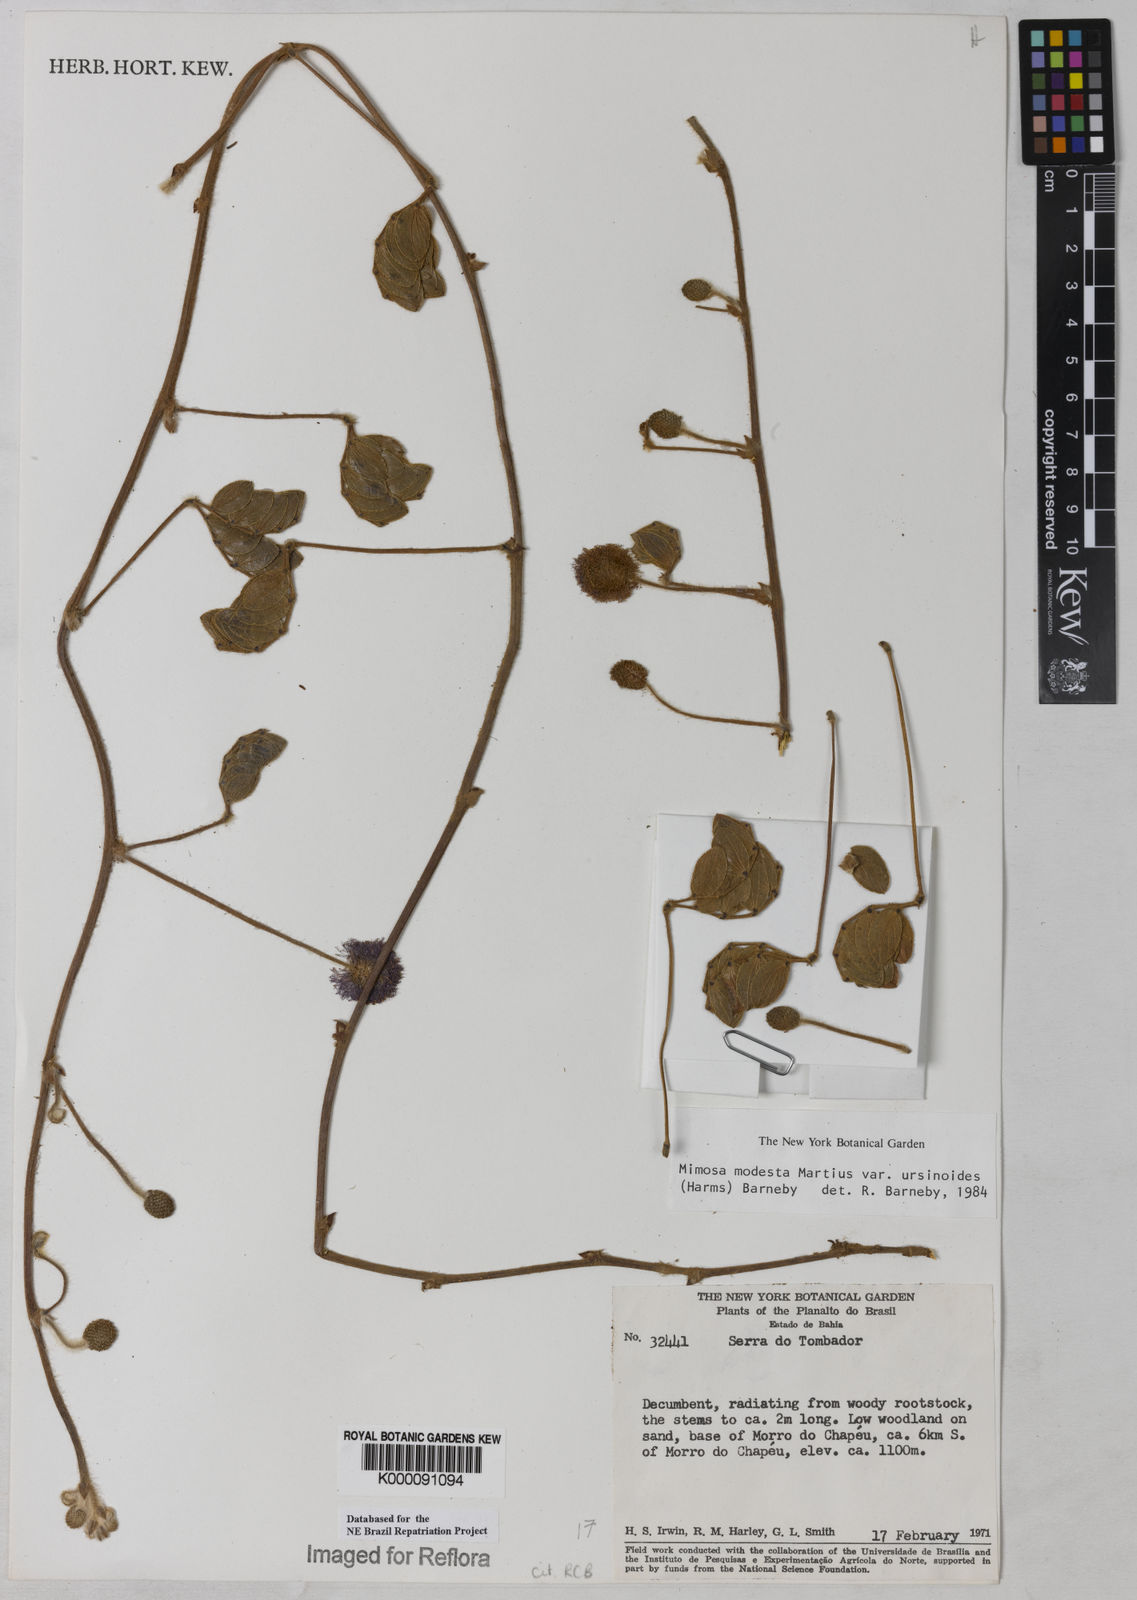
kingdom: Plantae
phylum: Tracheophyta
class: Magnoliopsida
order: Fabales
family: Fabaceae
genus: Mimosa
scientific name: Mimosa modesta
